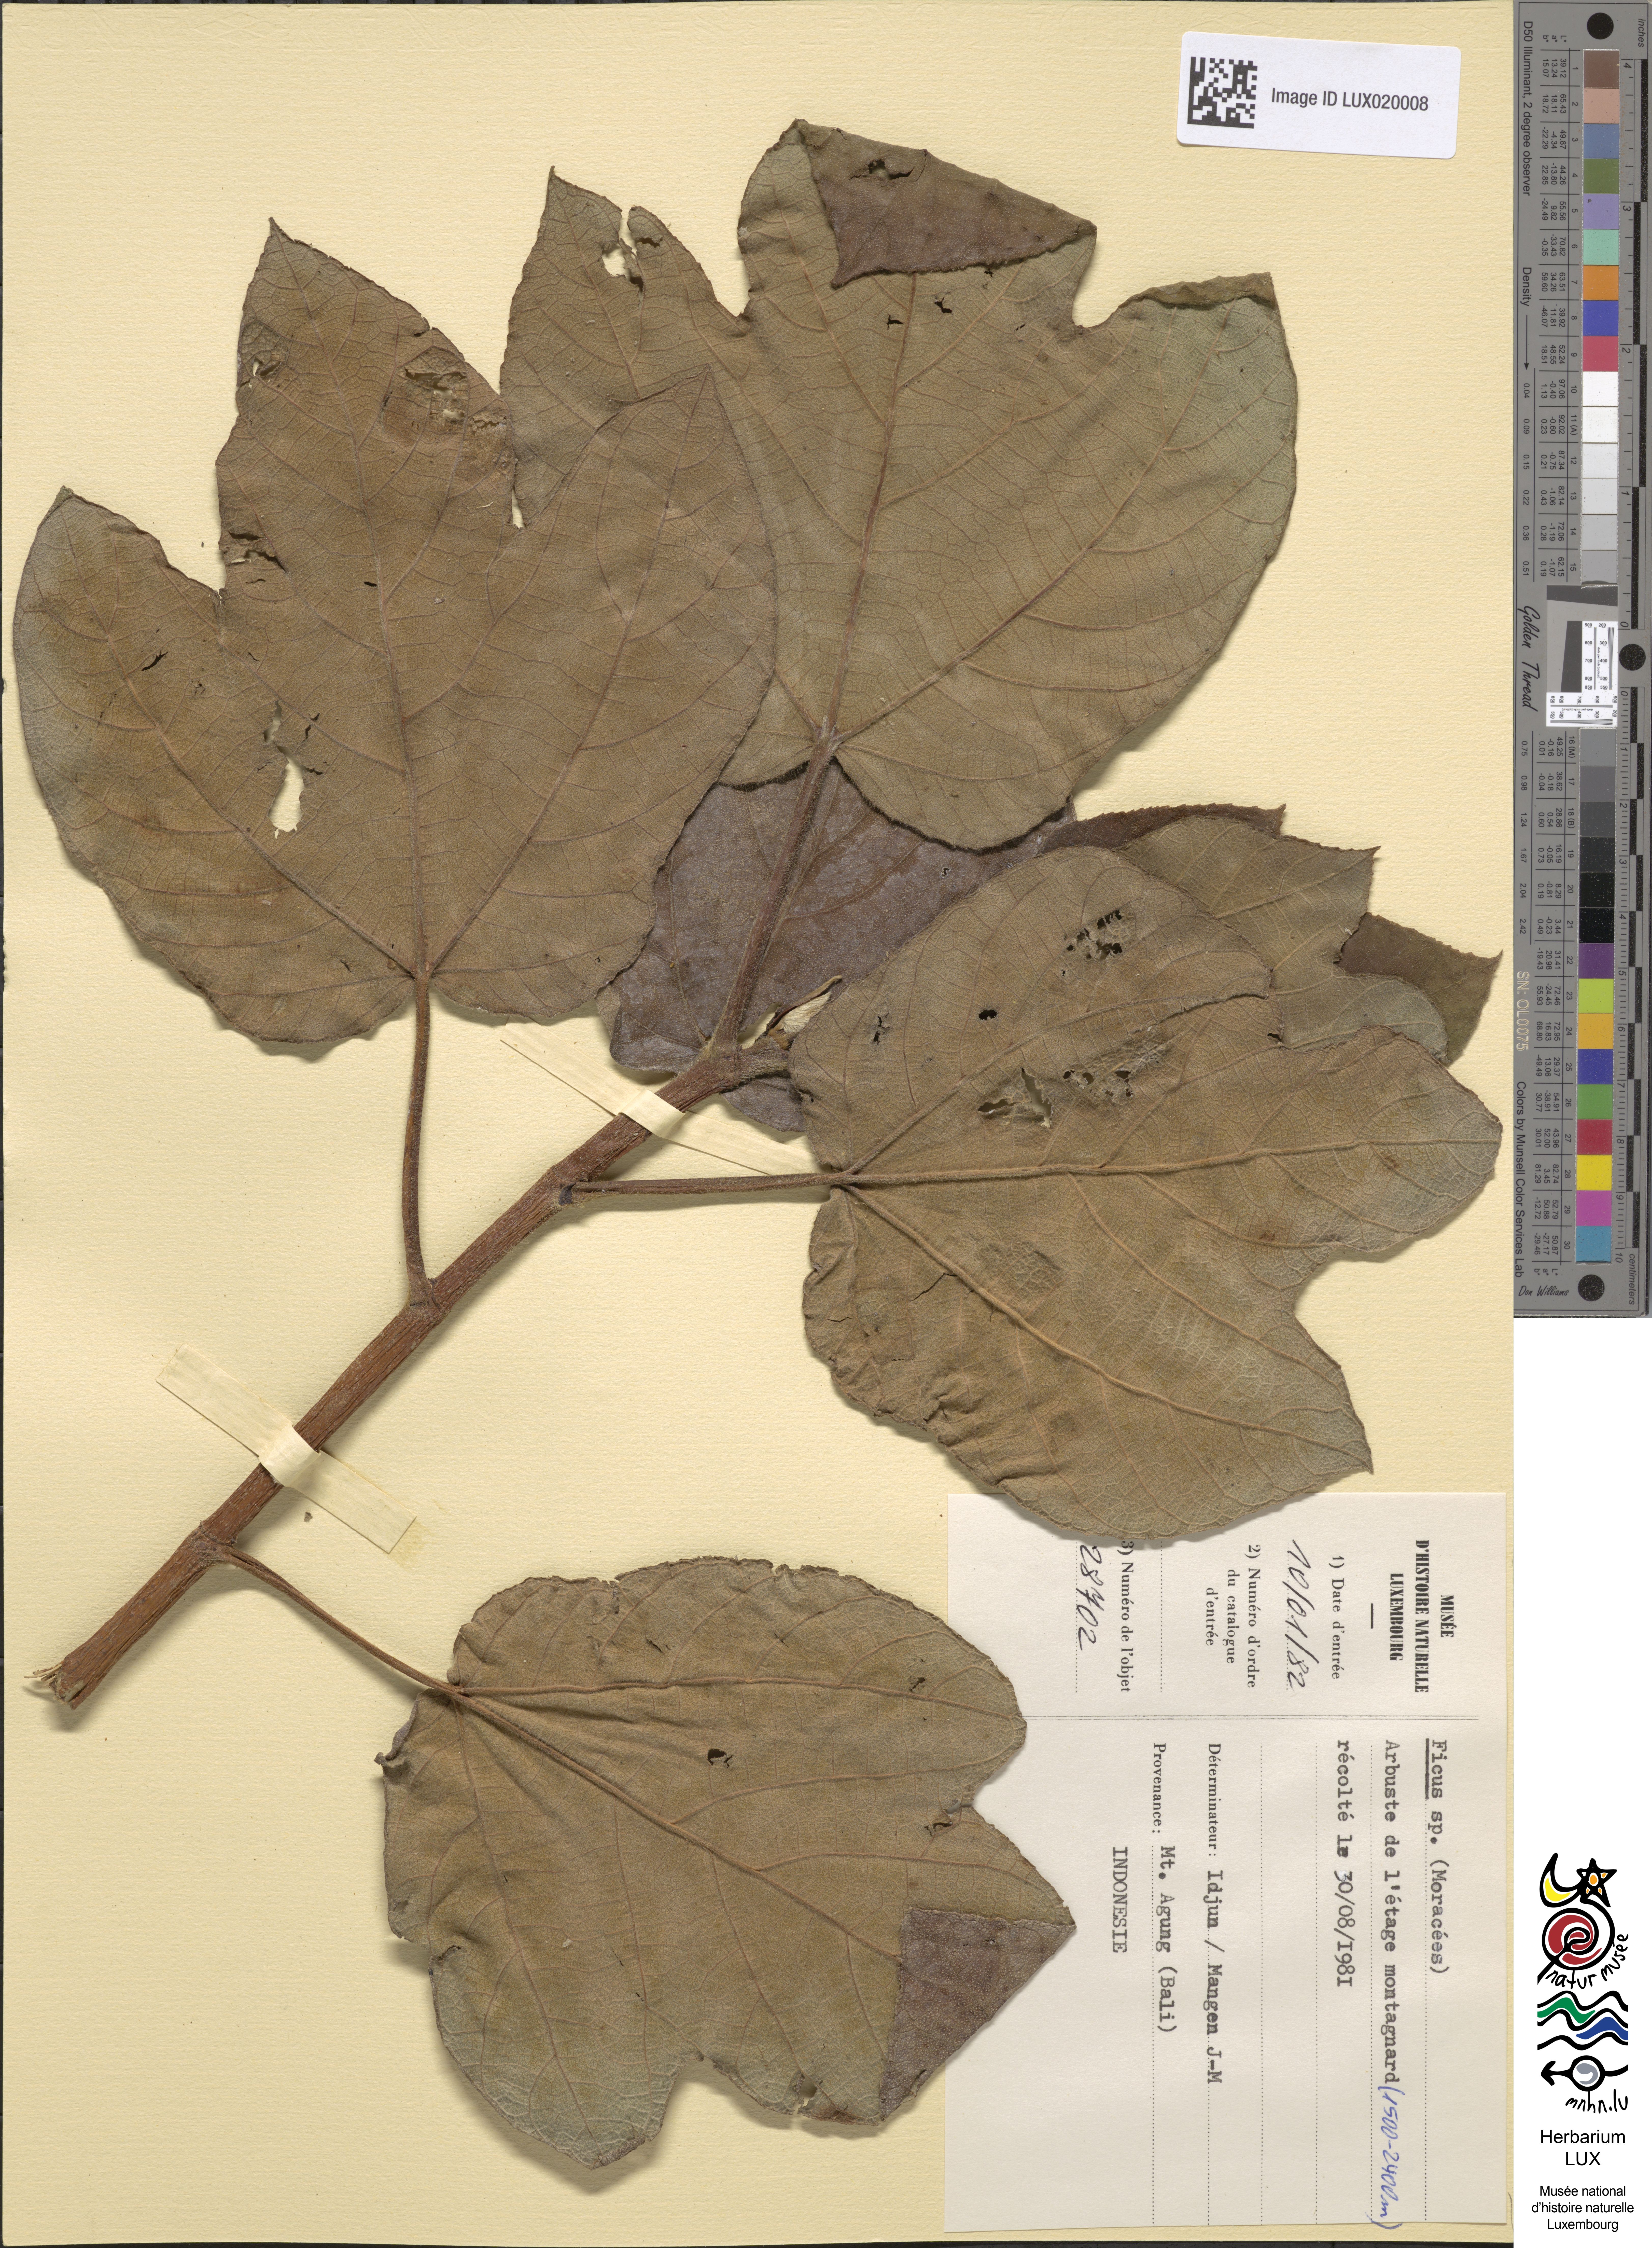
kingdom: Plantae
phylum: Tracheophyta
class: Magnoliopsida
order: Rosales
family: Moraceae
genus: Ficus
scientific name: Ficus
